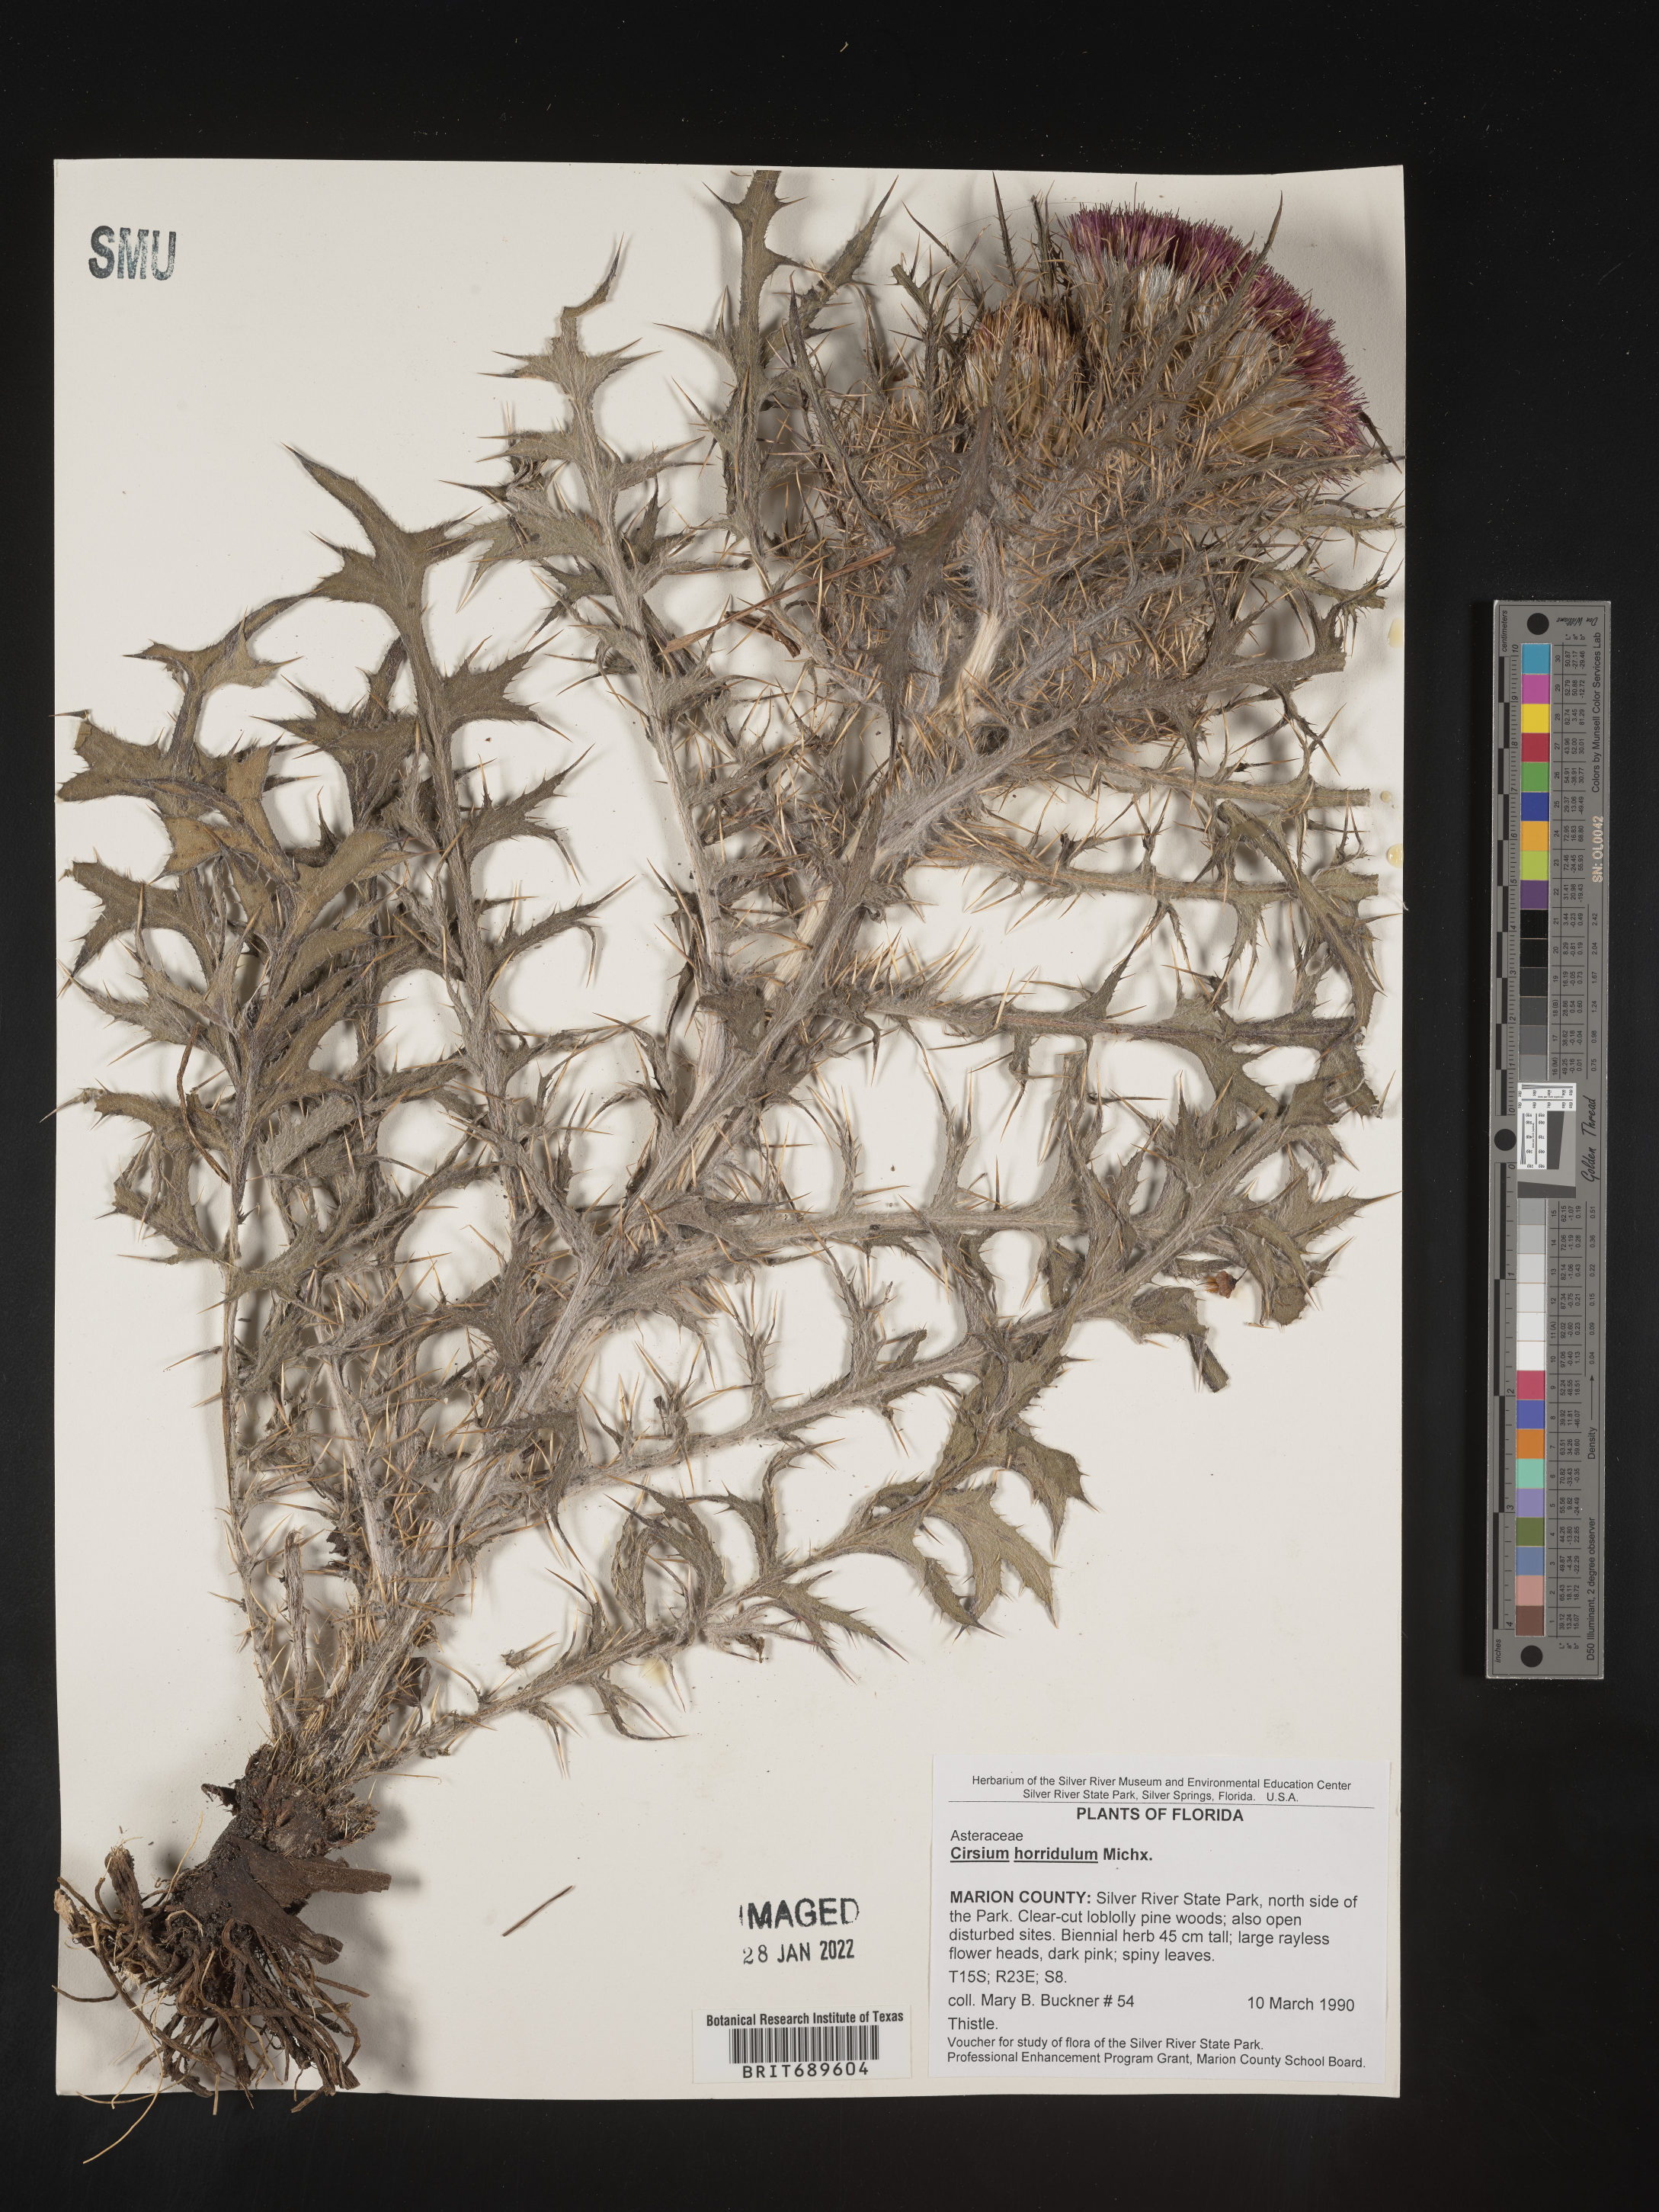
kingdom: Plantae
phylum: Tracheophyta
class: Magnoliopsida
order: Asterales
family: Asteraceae
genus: Cirsium
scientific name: Cirsium horridulum
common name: Bristly thistle
